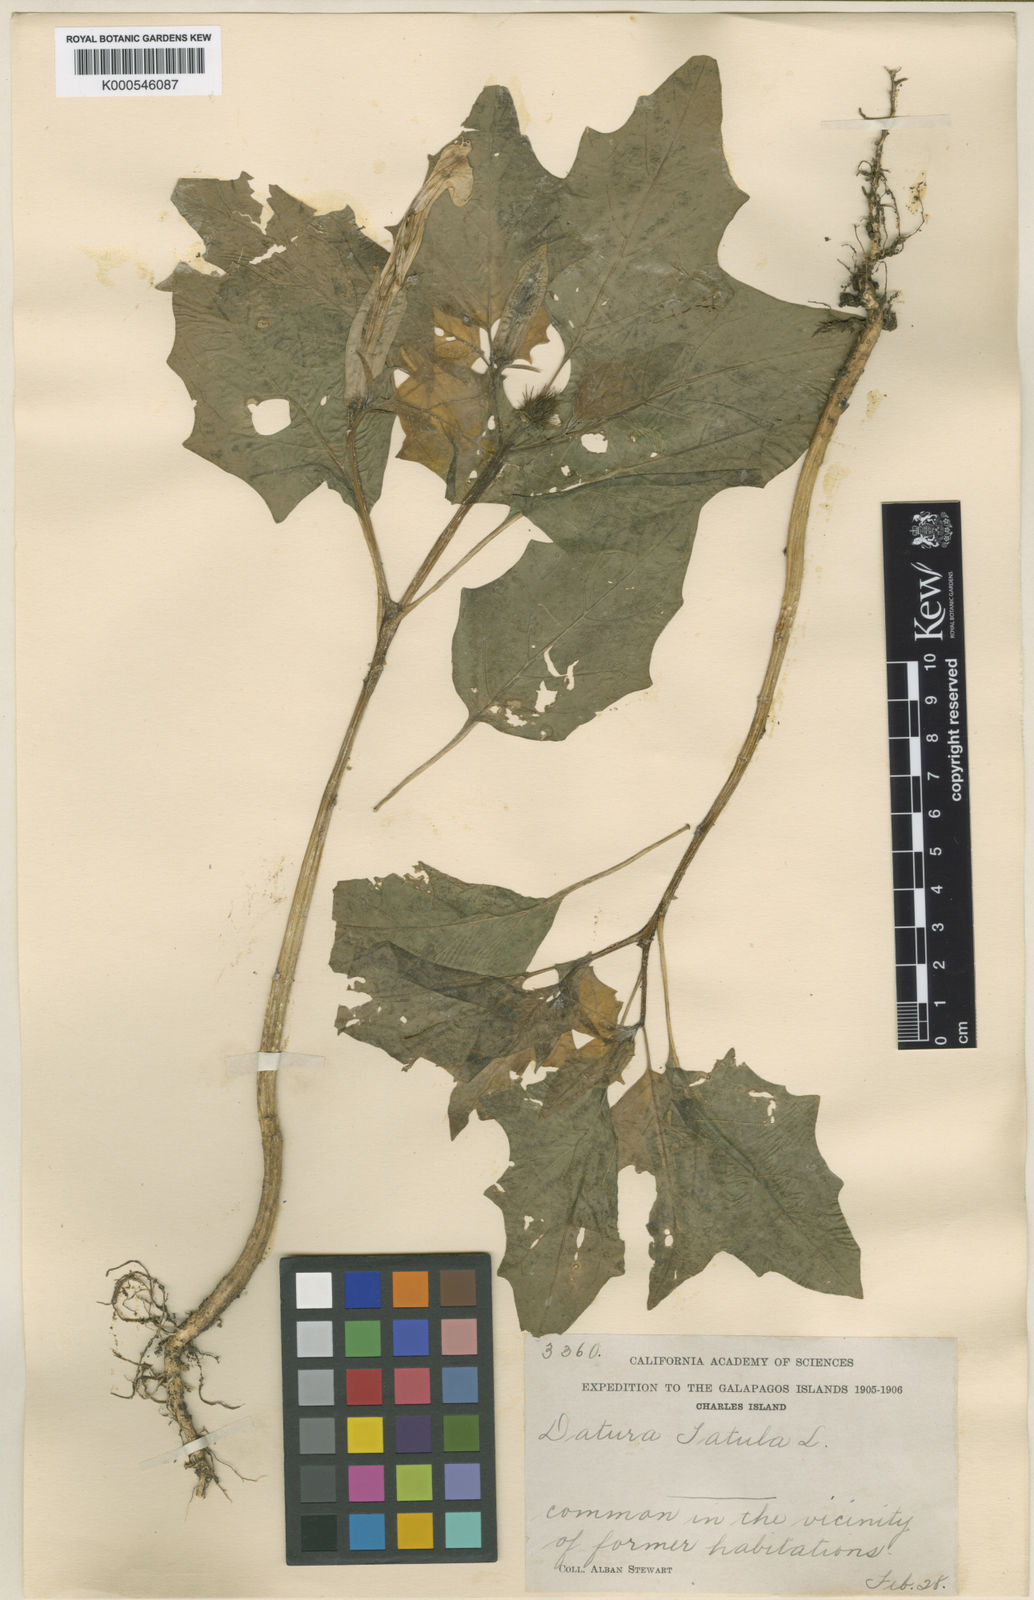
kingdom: Plantae
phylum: Tracheophyta
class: Magnoliopsida
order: Solanales
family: Solanaceae
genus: Datura
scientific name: Datura stramonium
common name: Thorn-apple
